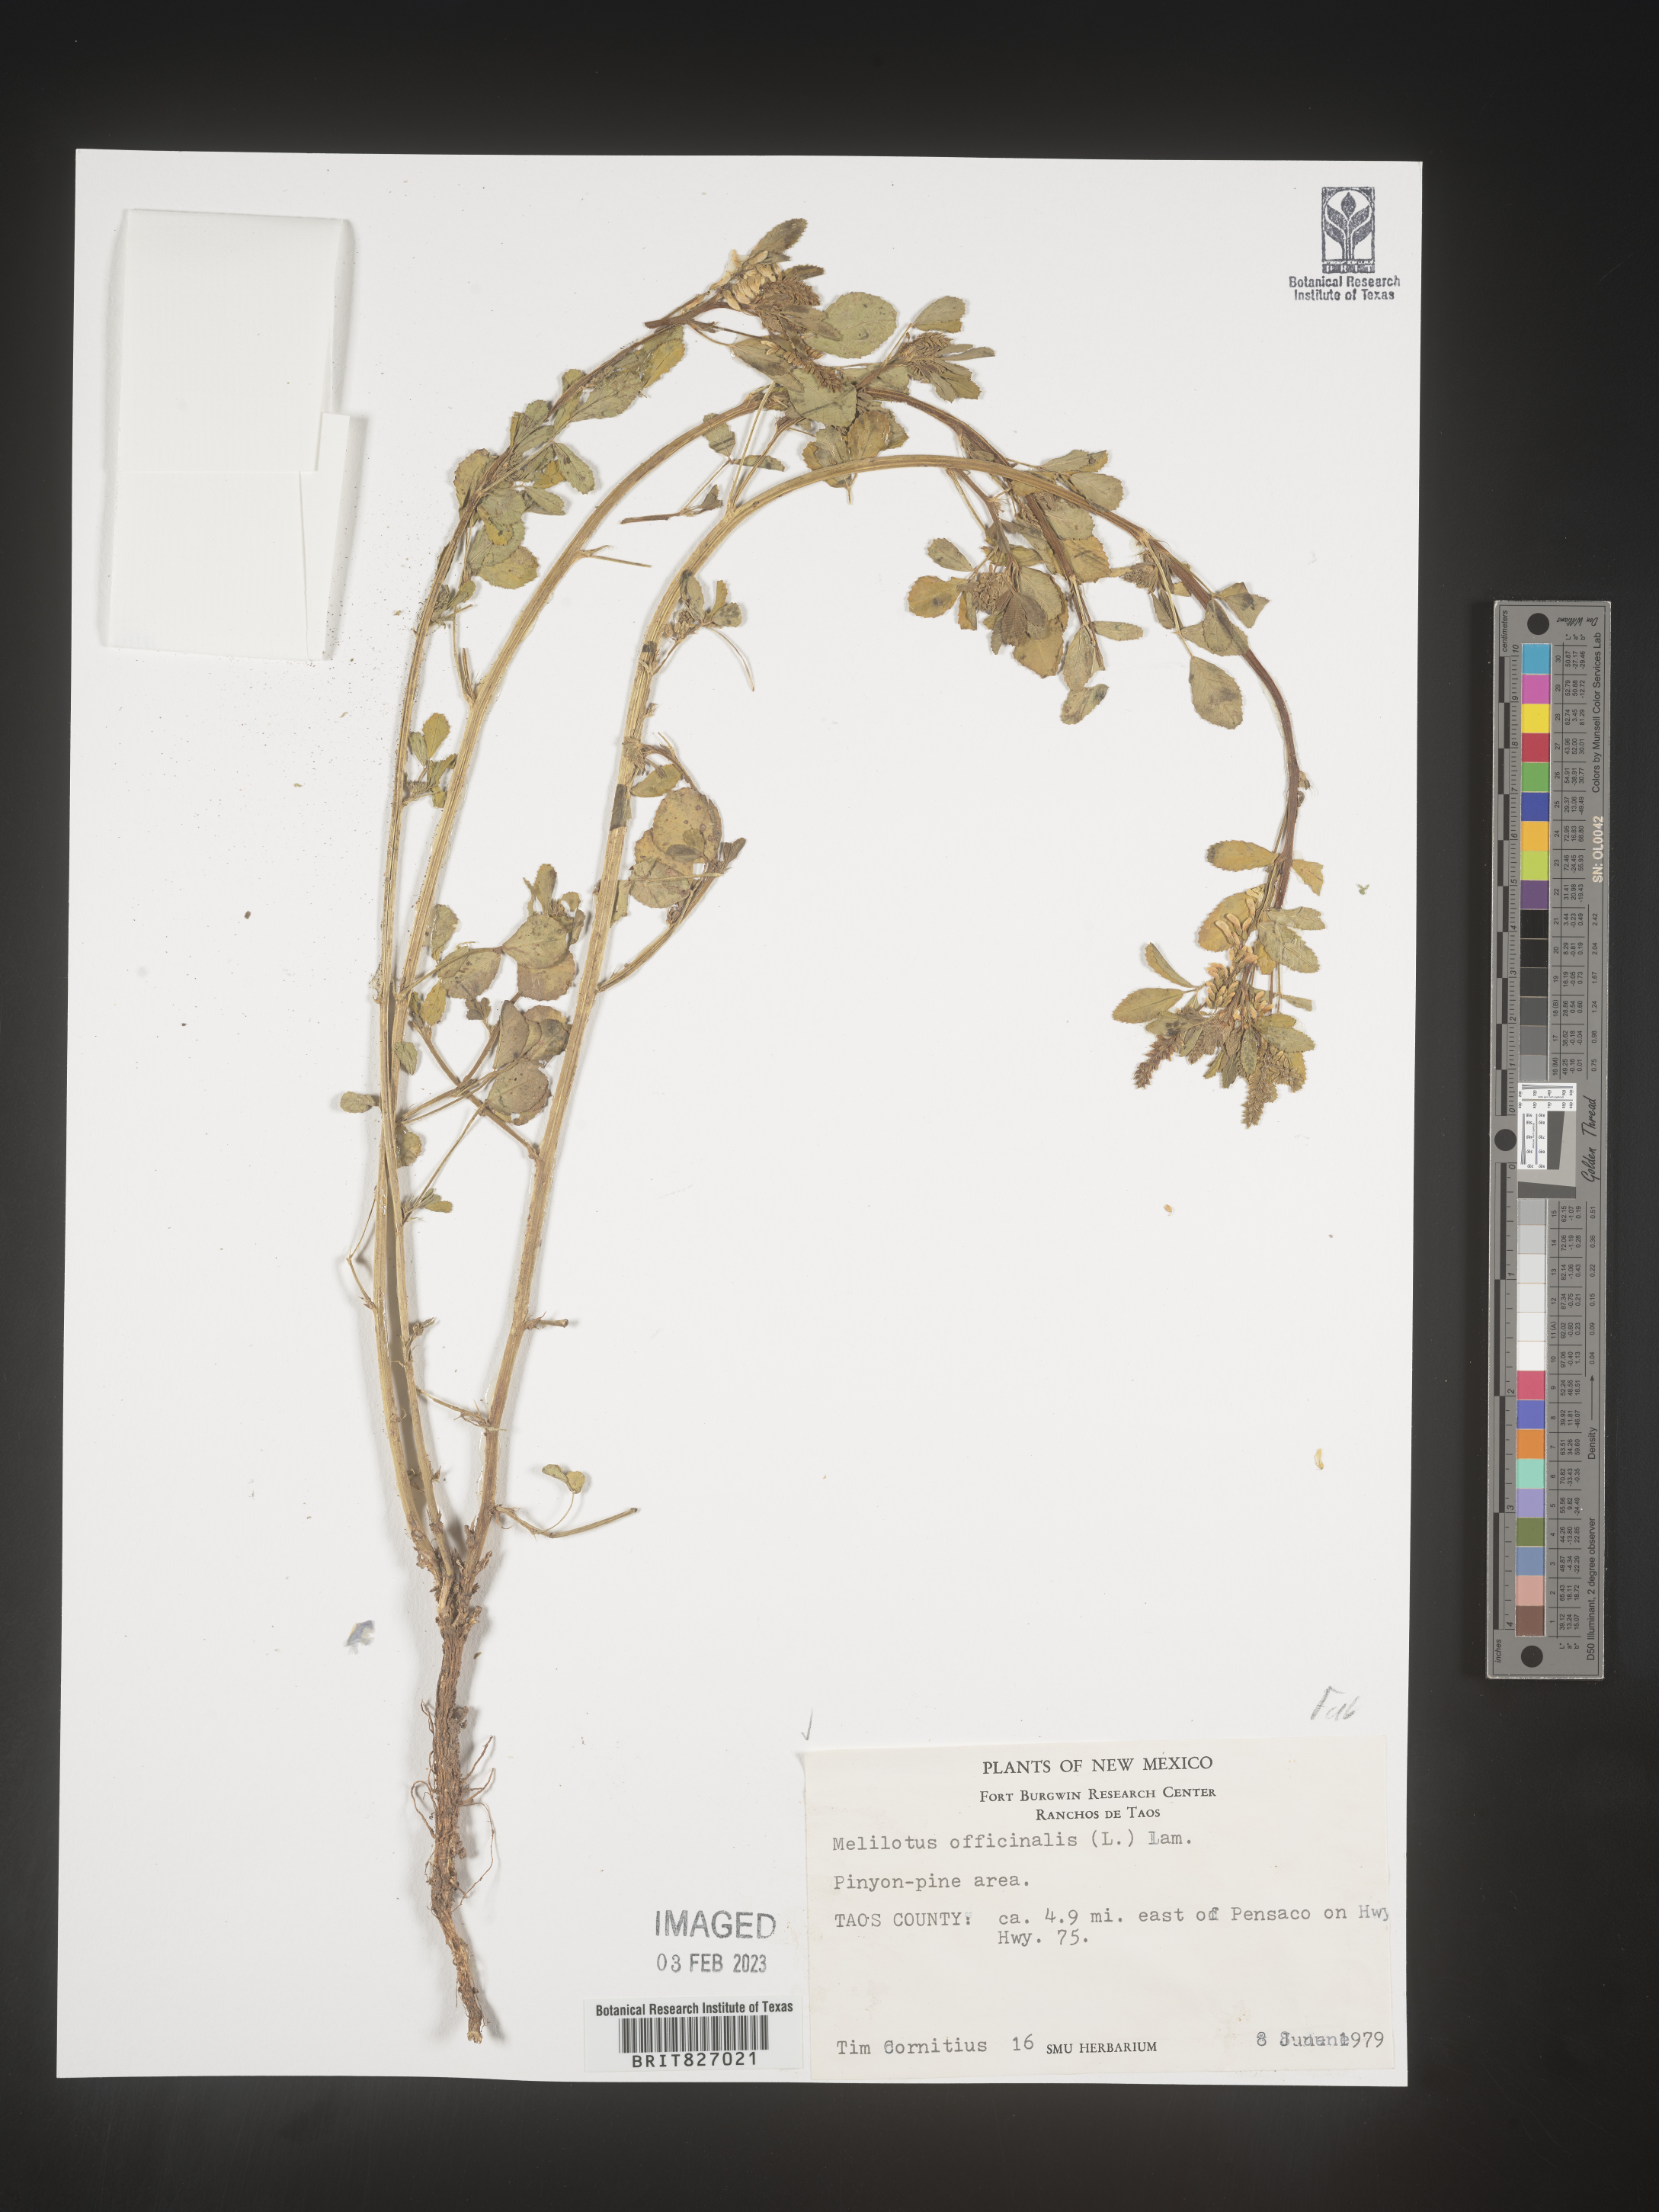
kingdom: Plantae
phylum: Tracheophyta
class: Magnoliopsida
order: Fabales
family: Fabaceae
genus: Melilotus
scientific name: Melilotus officinalis
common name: Sweetclover
